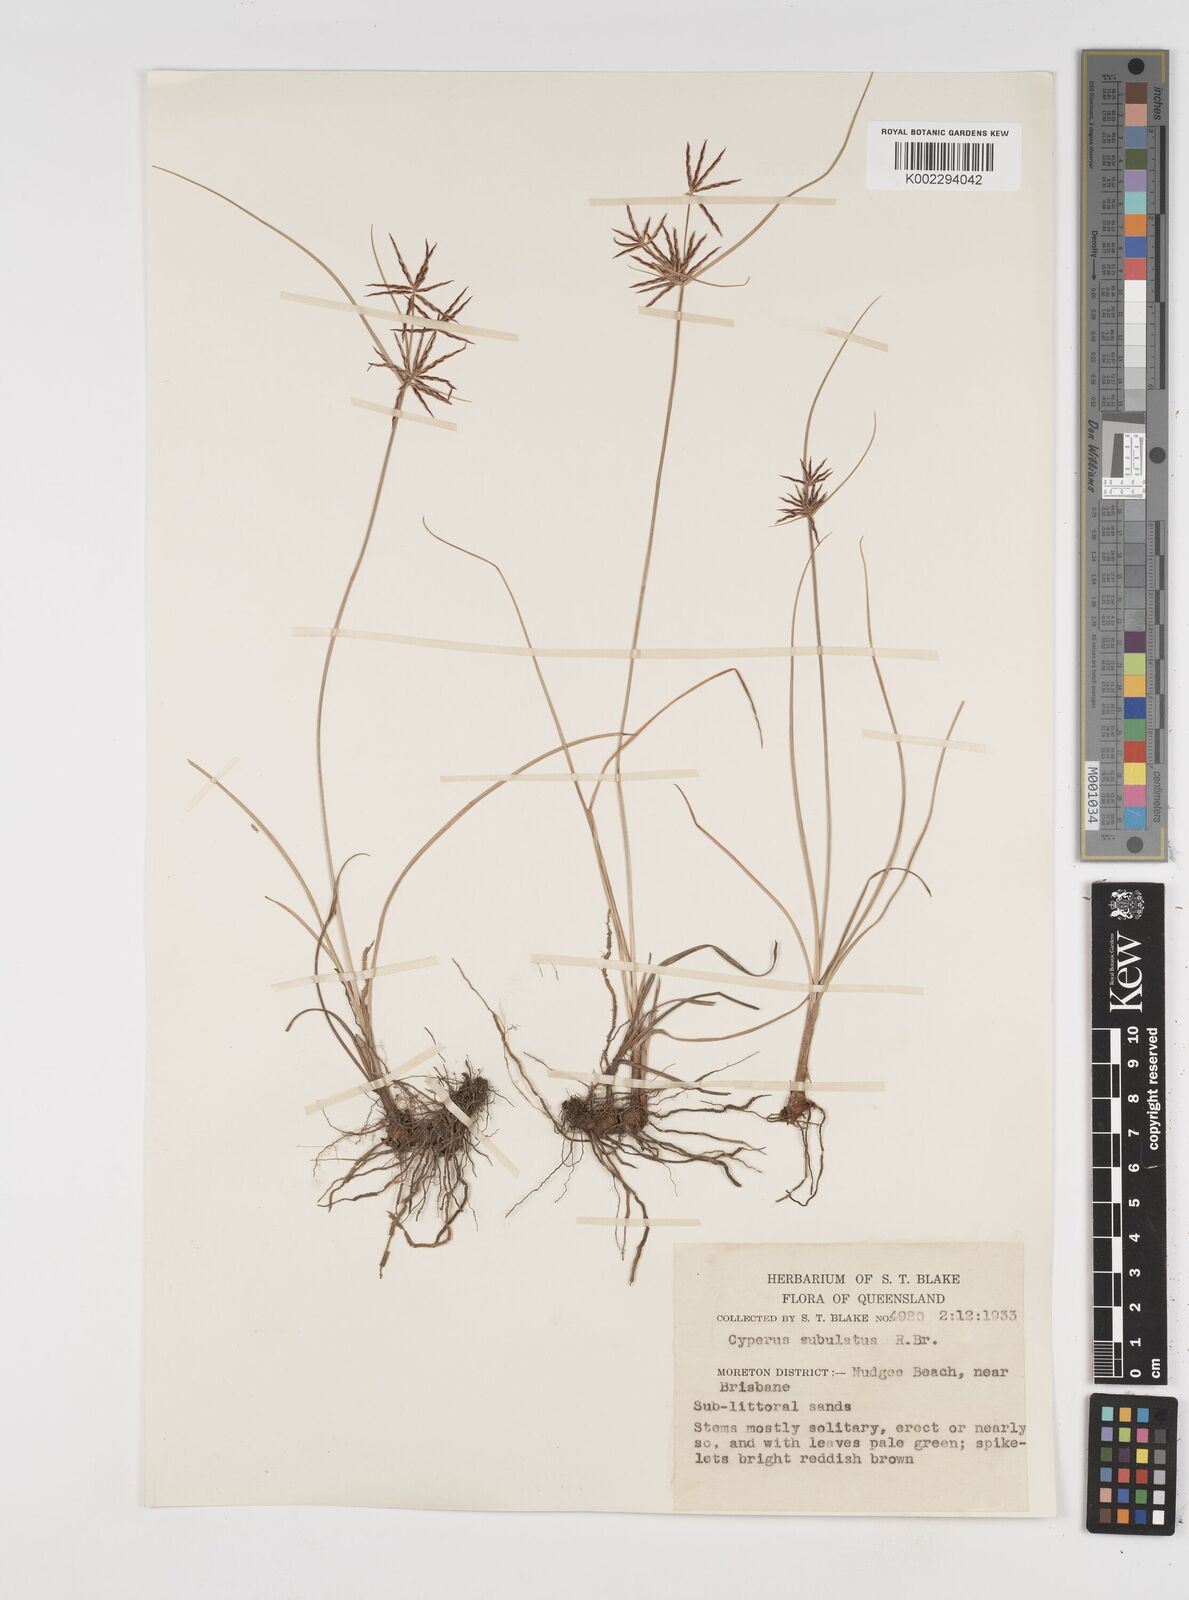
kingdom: Plantae
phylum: Tracheophyta
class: Liliopsida
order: Poales
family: Cyperaceae
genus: Cyperus
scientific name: Cyperus subulatus
